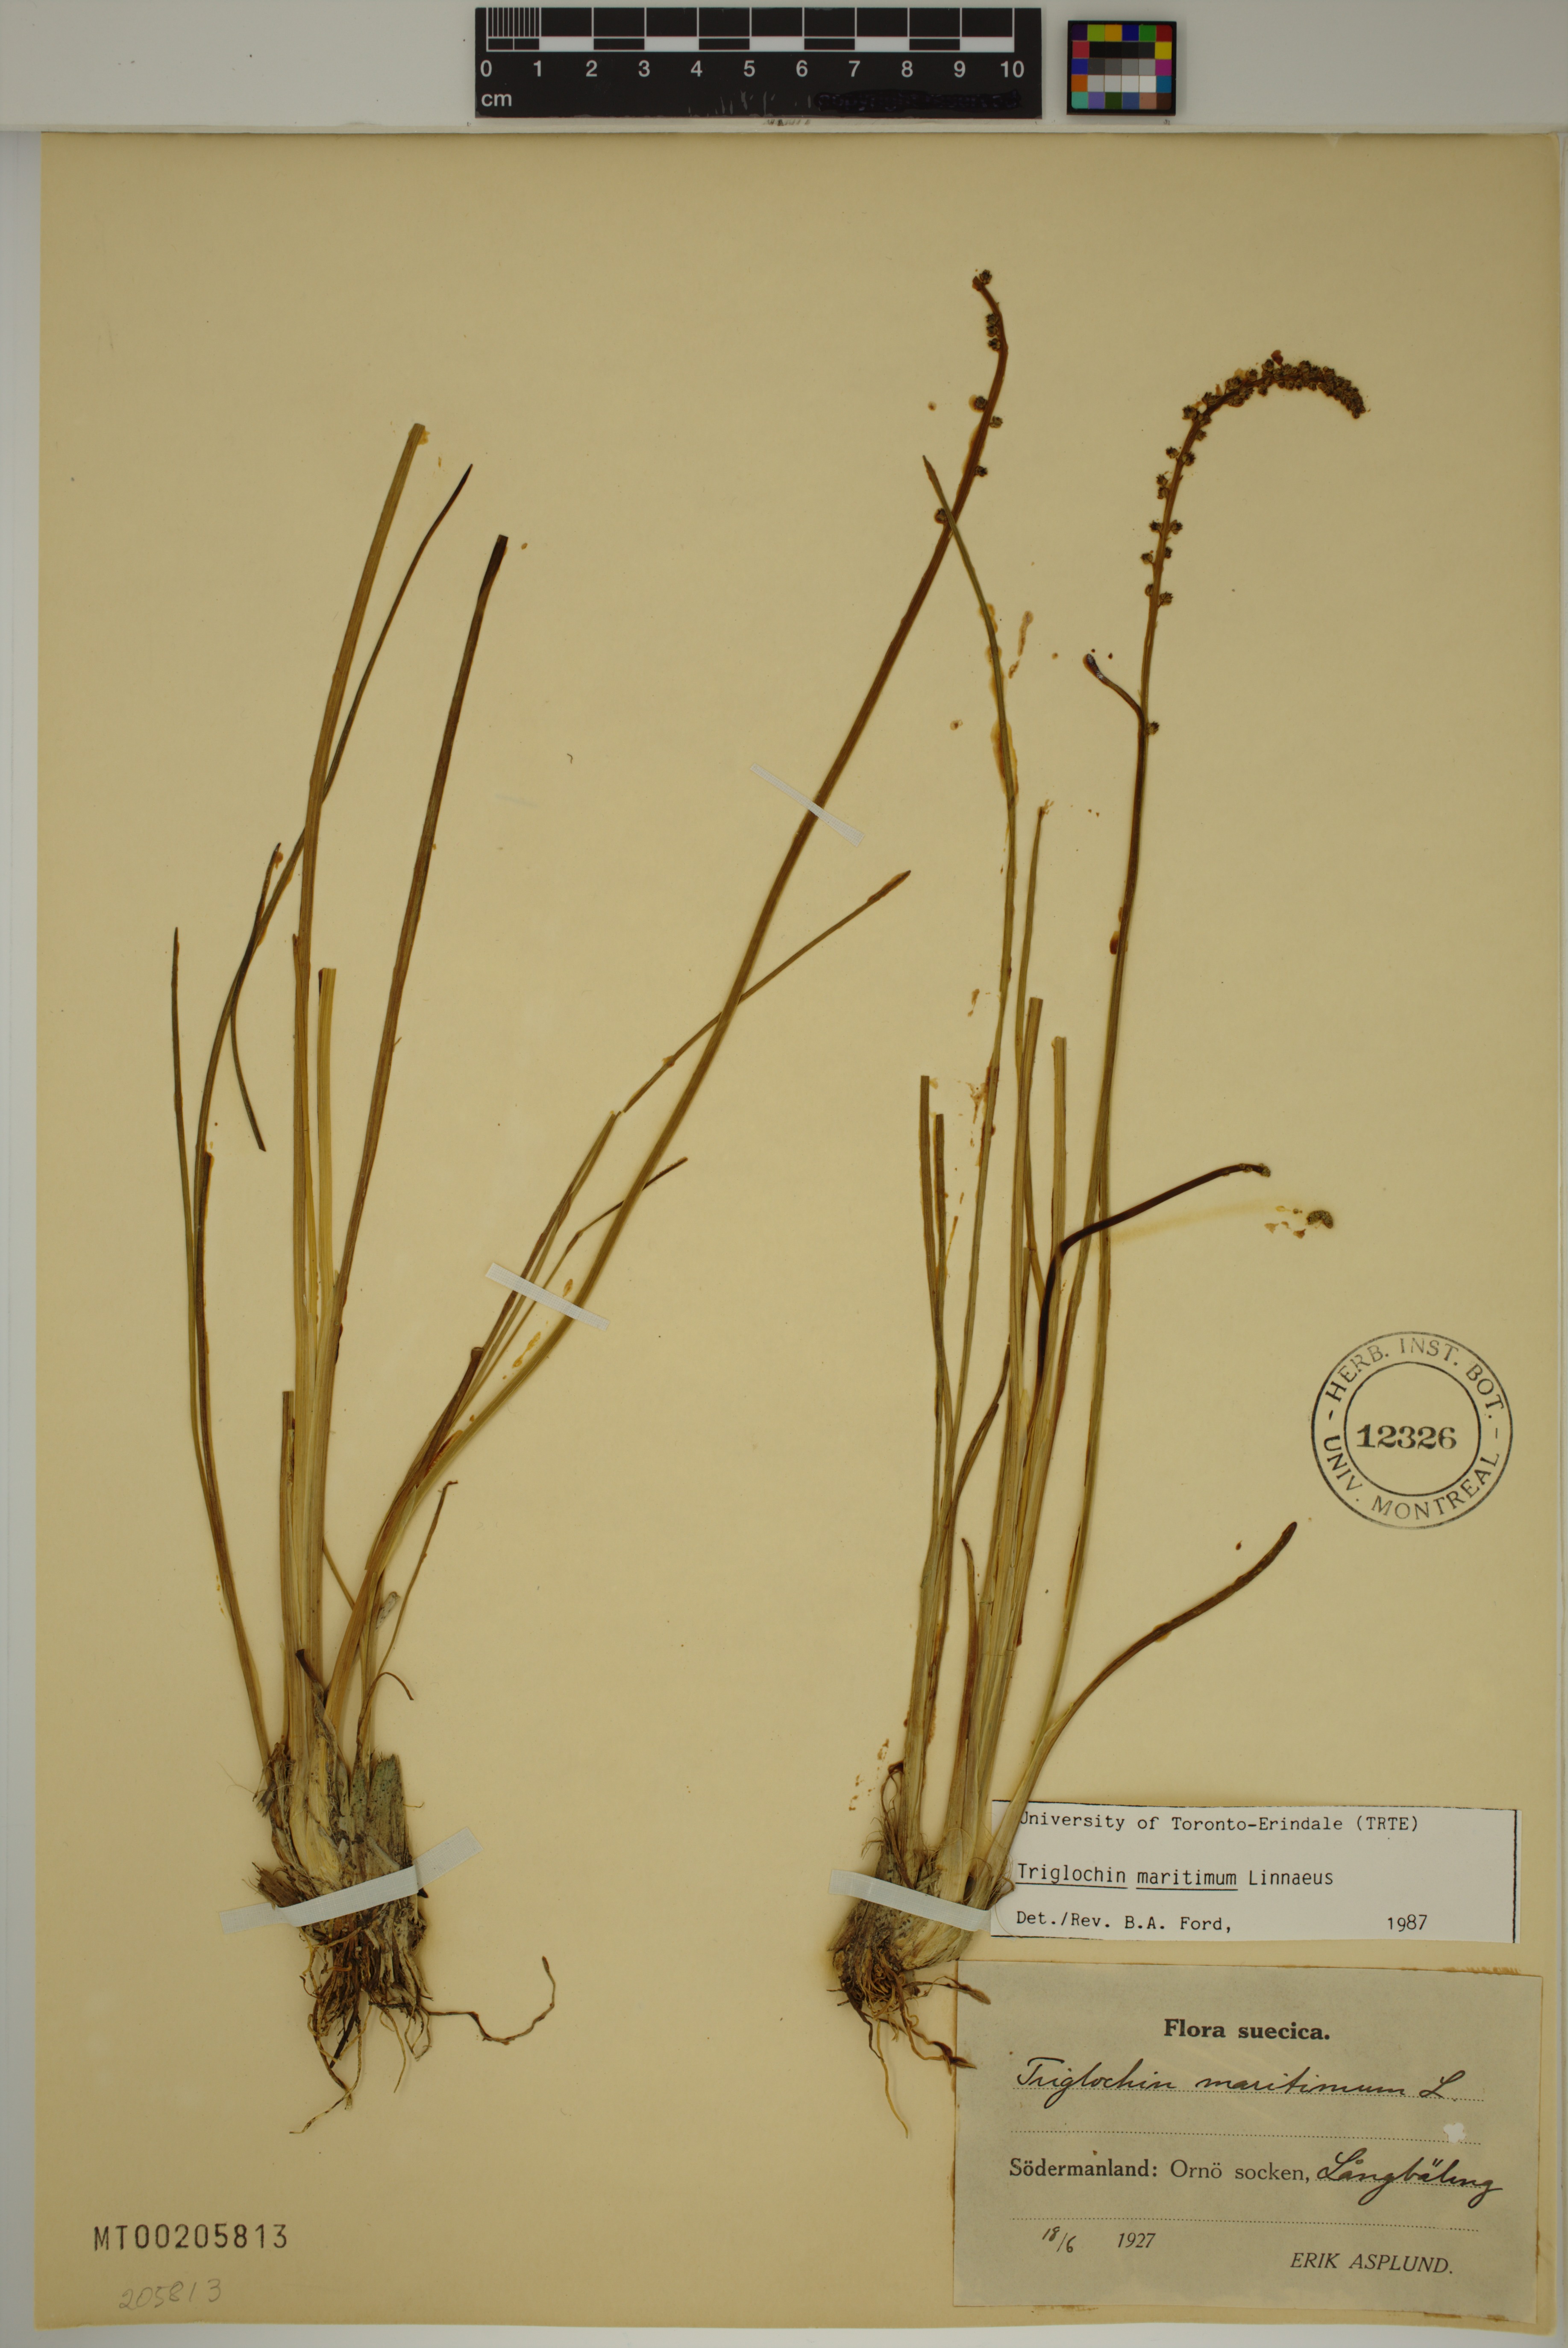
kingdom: Plantae
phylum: Tracheophyta
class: Liliopsida
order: Alismatales
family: Juncaginaceae
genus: Triglochin
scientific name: Triglochin maritima
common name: Sea arrowgrass
